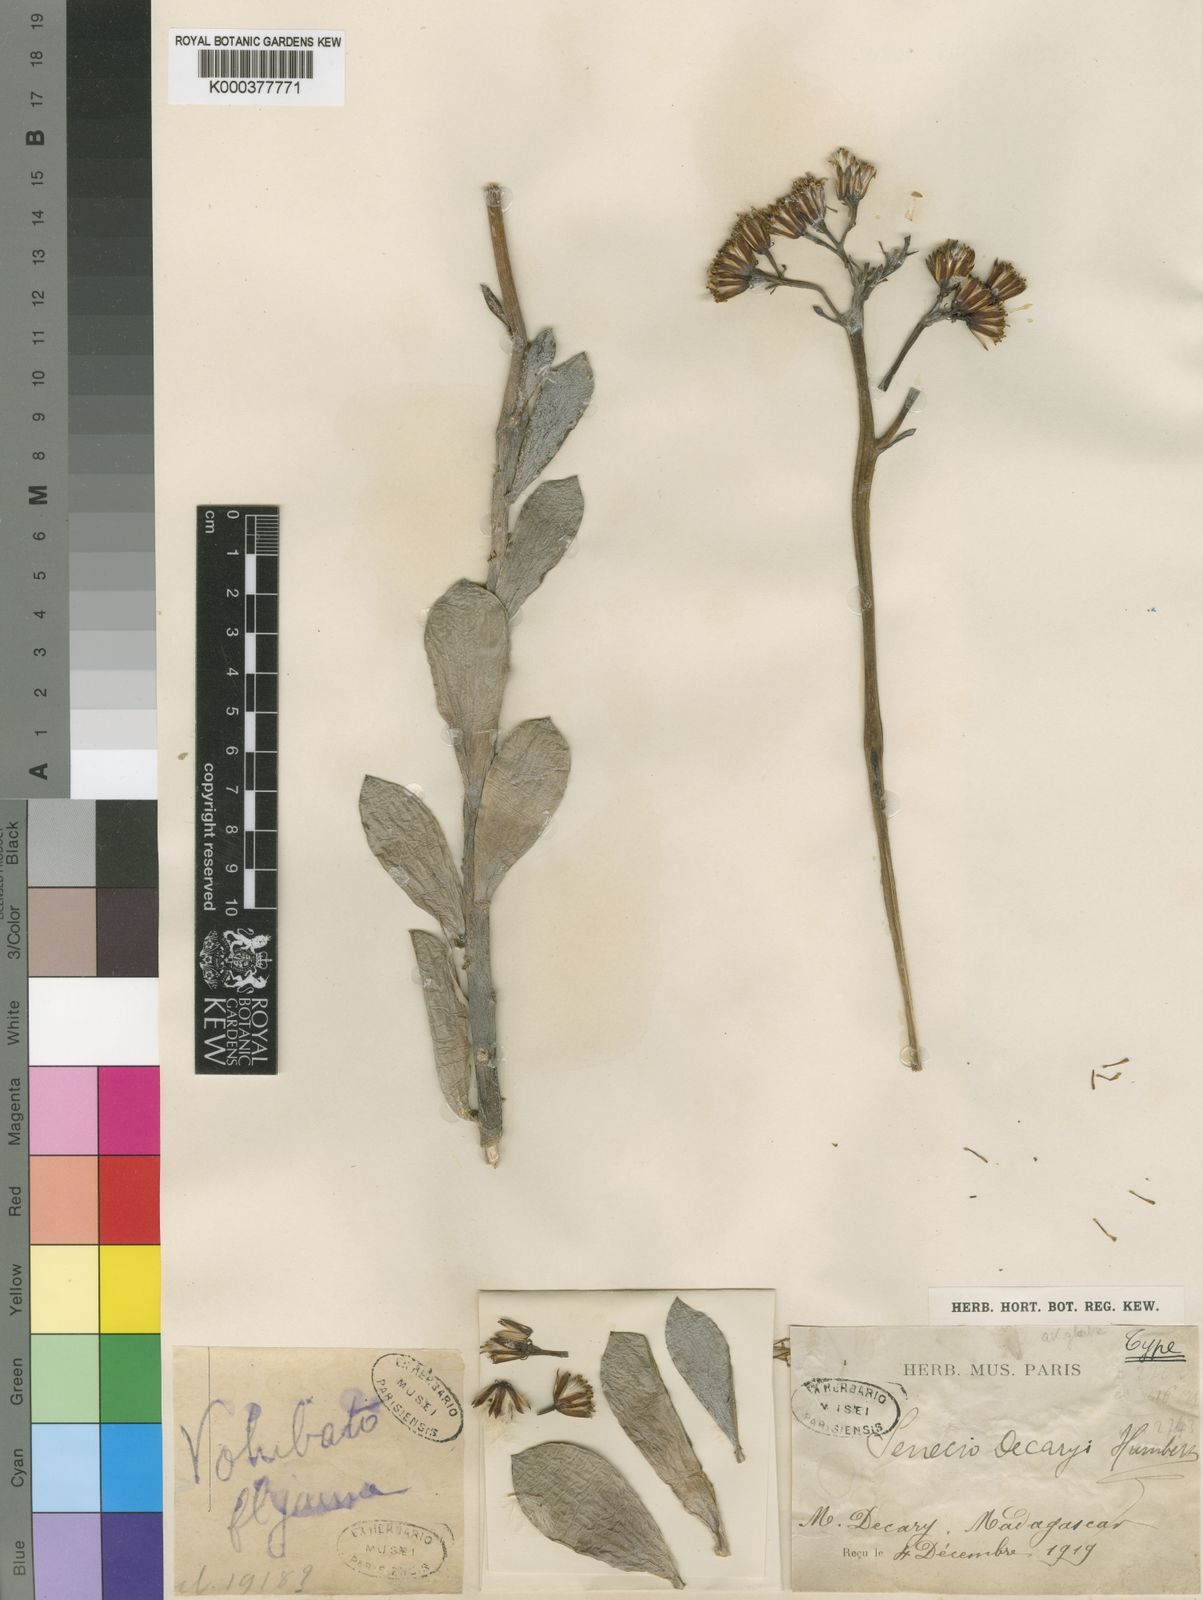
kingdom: Plantae
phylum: Tracheophyta
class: Magnoliopsida
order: Asterales
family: Asteraceae
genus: Senecio
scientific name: Senecio decaryi
